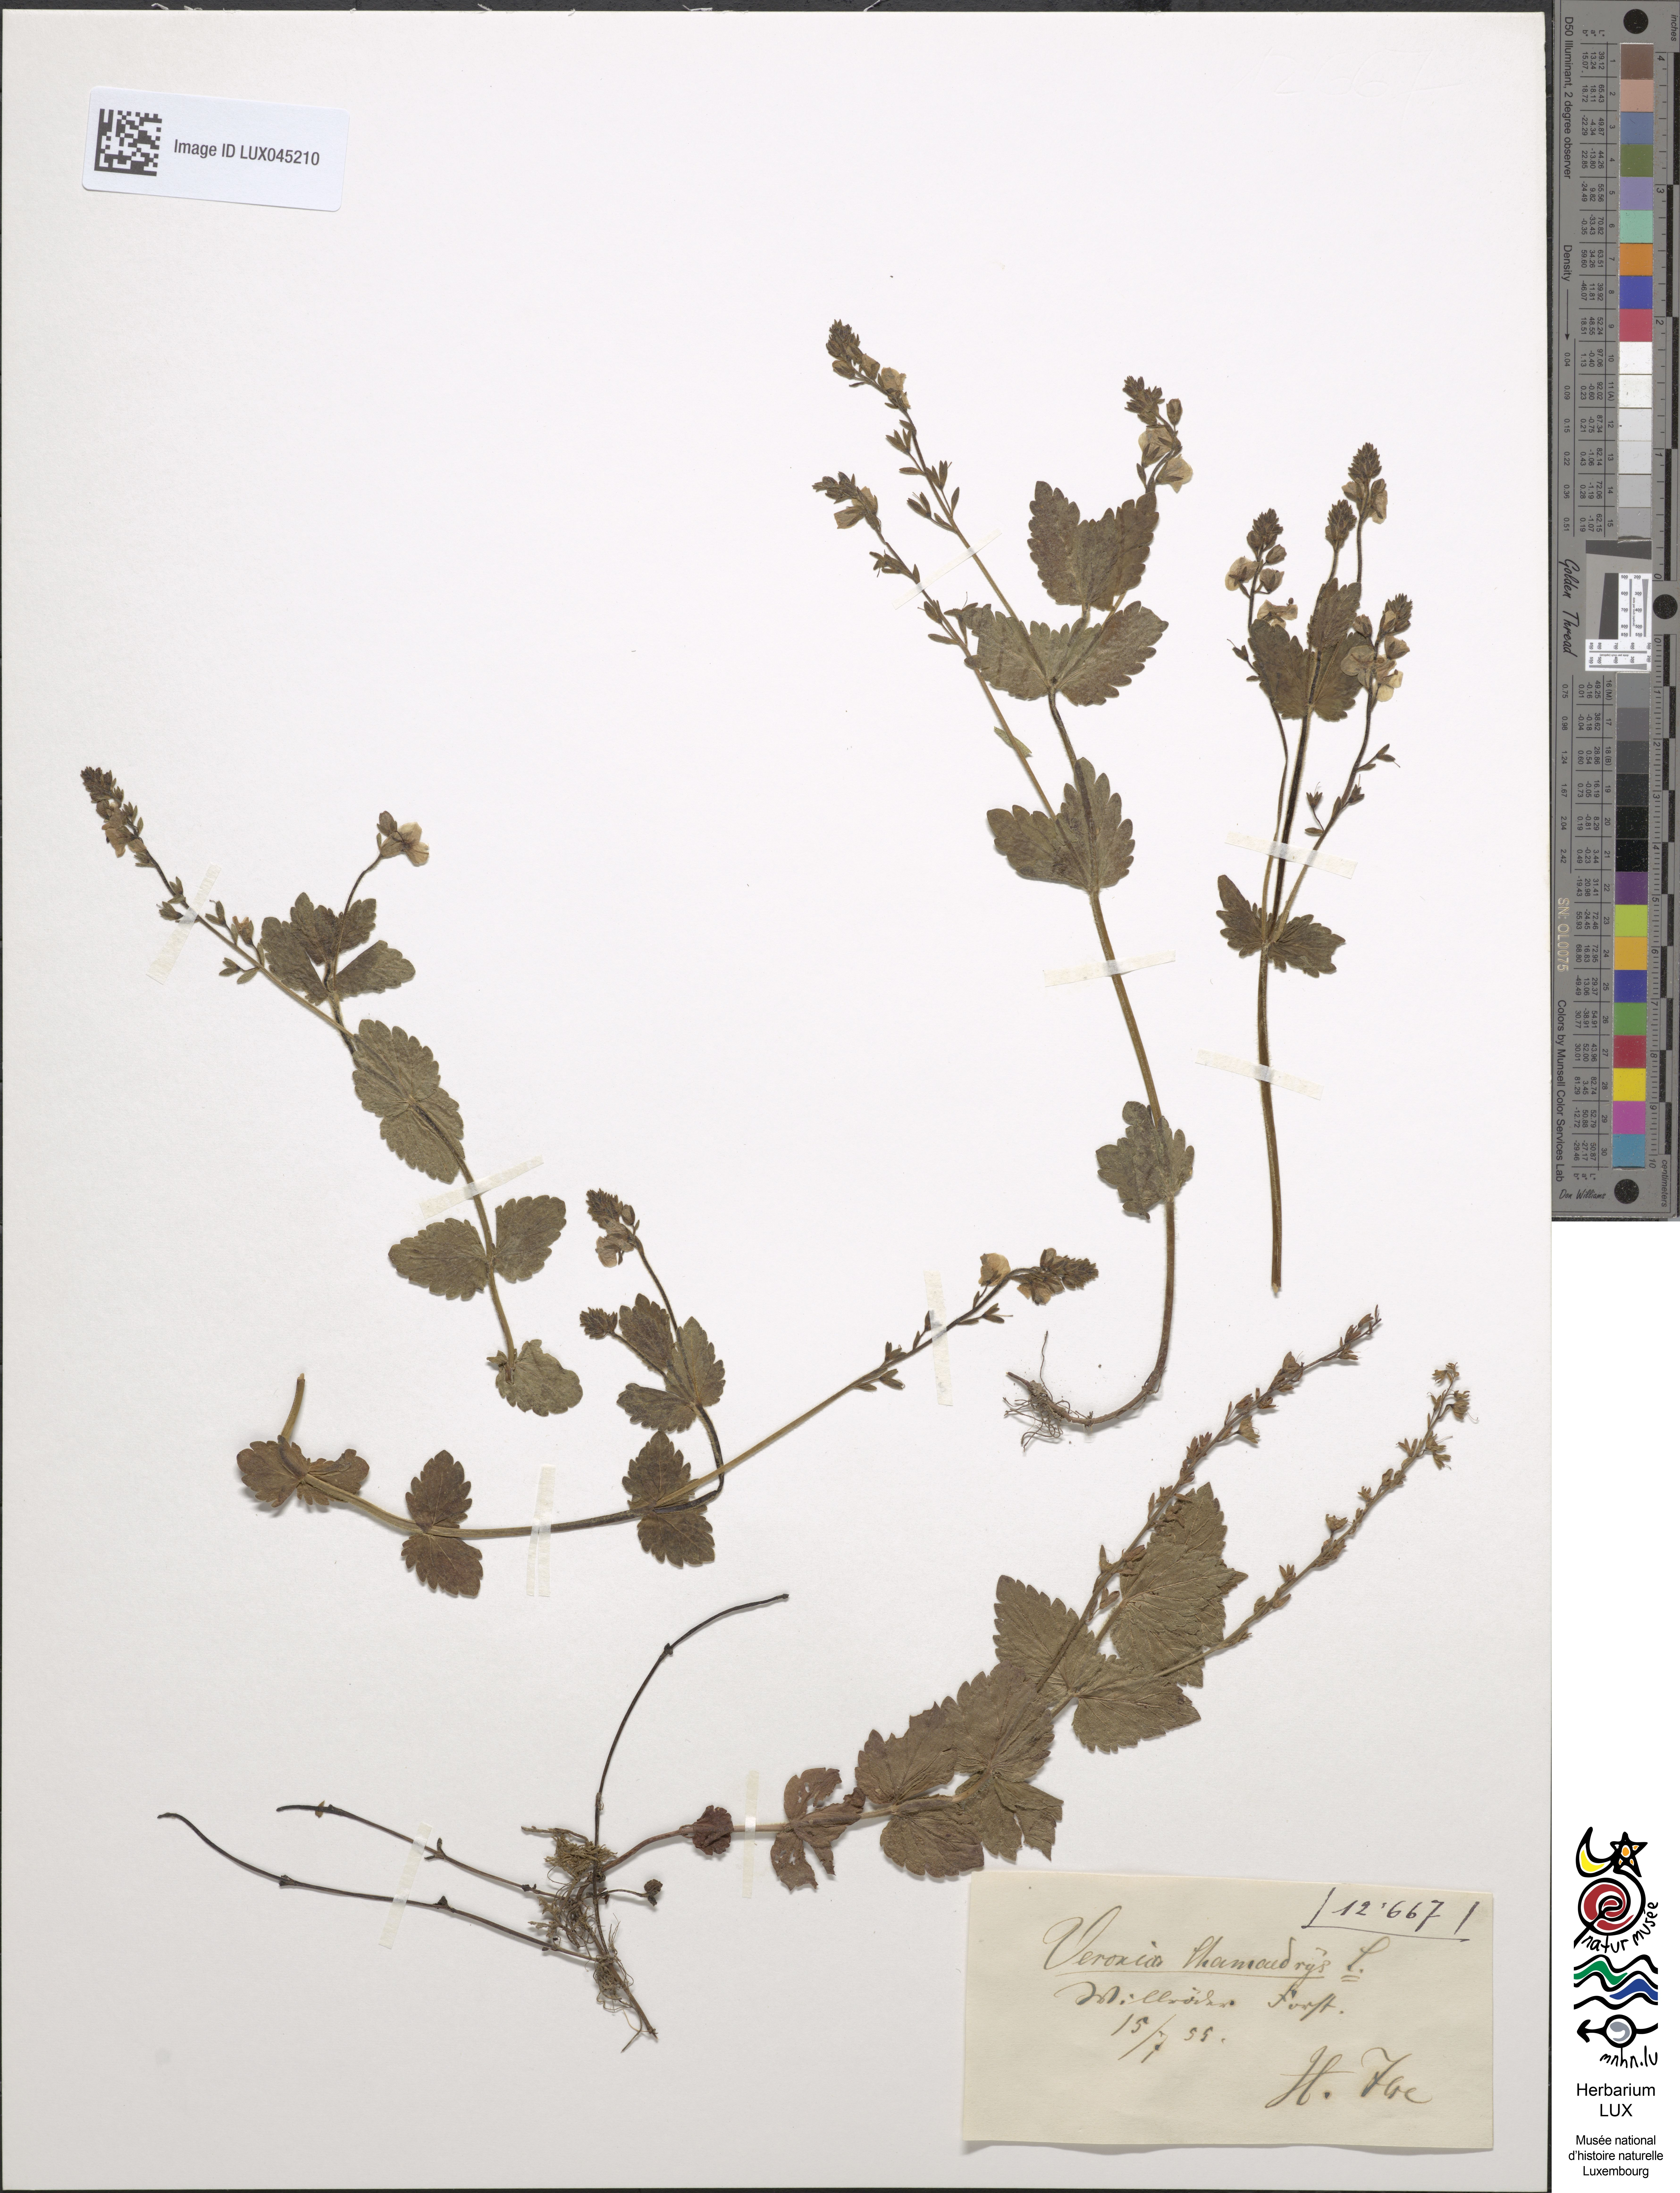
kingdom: Plantae
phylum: Tracheophyta
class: Magnoliopsida
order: Lamiales
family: Plantaginaceae
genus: Veronica
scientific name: Veronica chamaedrys
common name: Germander speedwell
